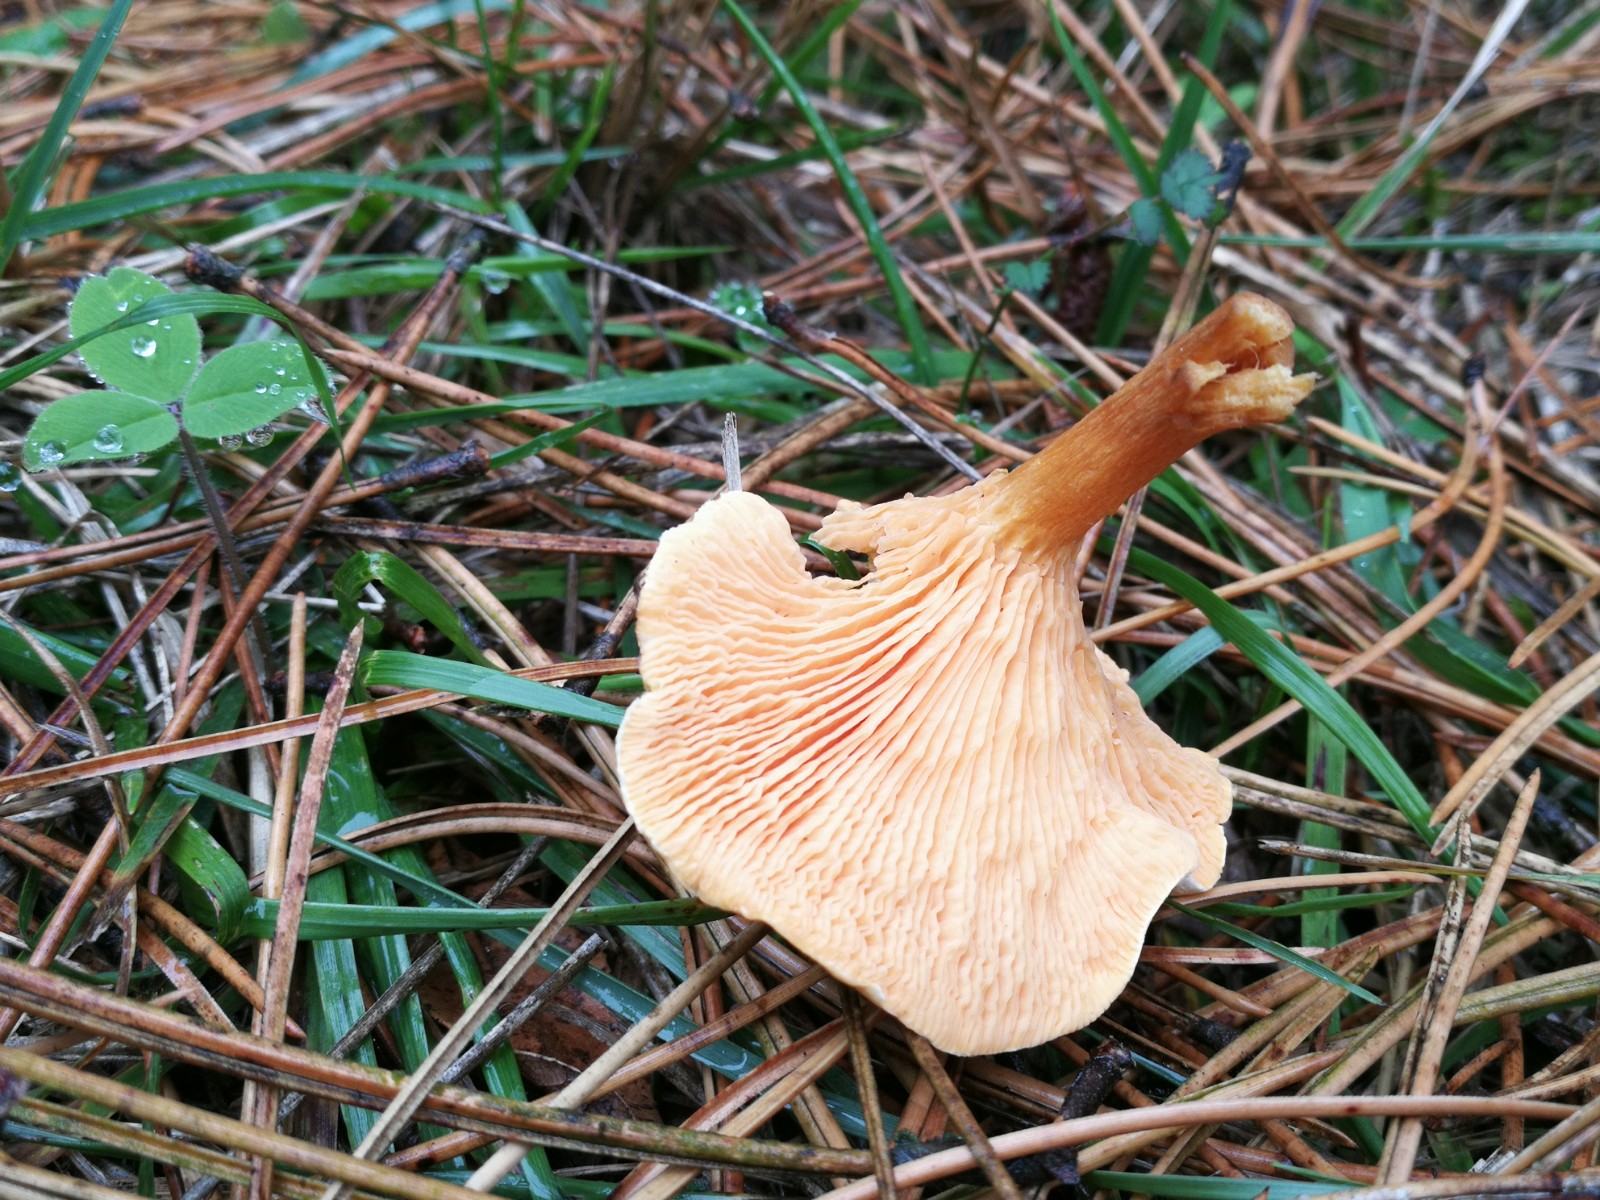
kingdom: Fungi
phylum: Basidiomycota
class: Agaricomycetes
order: Boletales
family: Hygrophoropsidaceae
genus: Hygrophoropsis
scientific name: Hygrophoropsis aurantiaca
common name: almindelig orangekantarel
